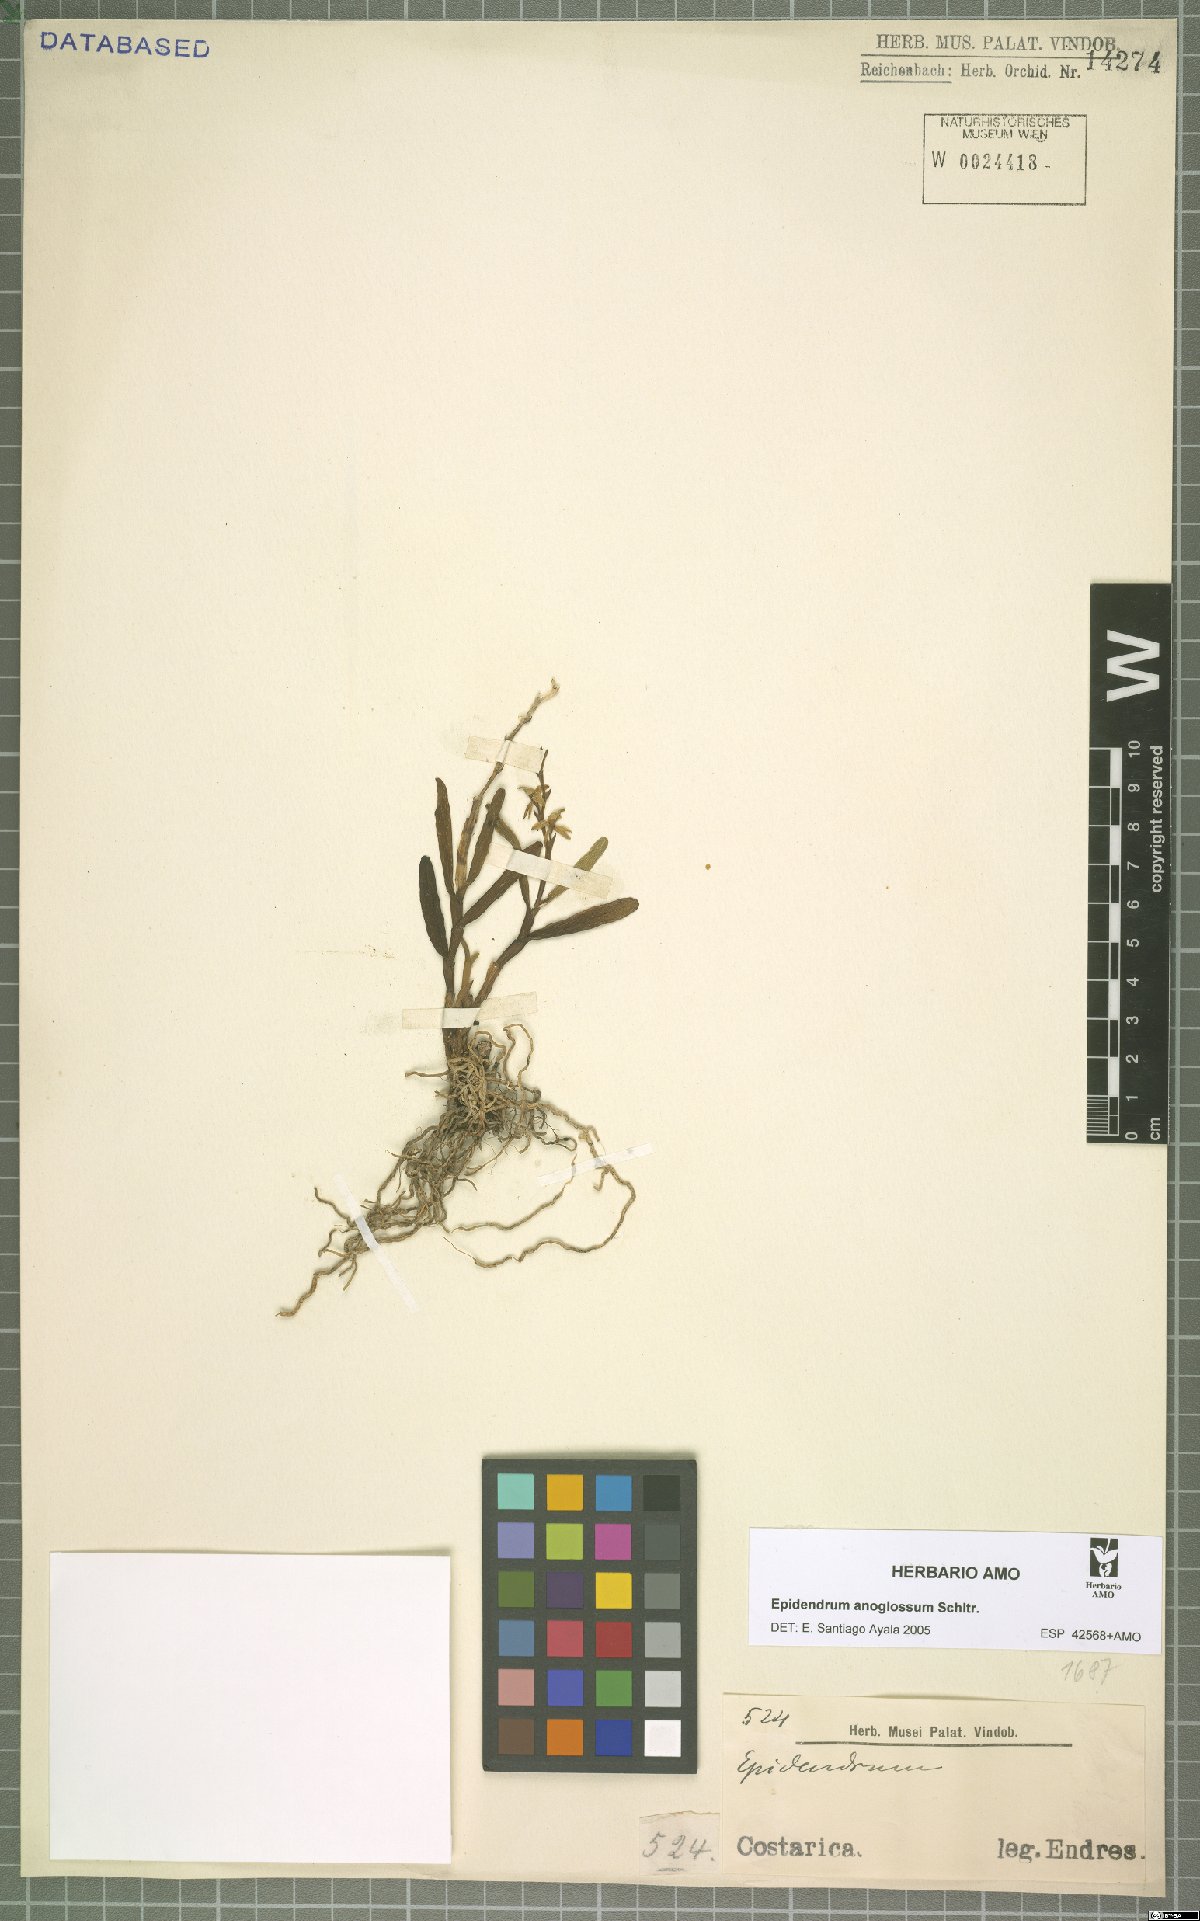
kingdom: Plantae
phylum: Tracheophyta
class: Liliopsida
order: Asparagales
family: Orchidaceae
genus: Epidendrum
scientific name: Epidendrum anoglossum
